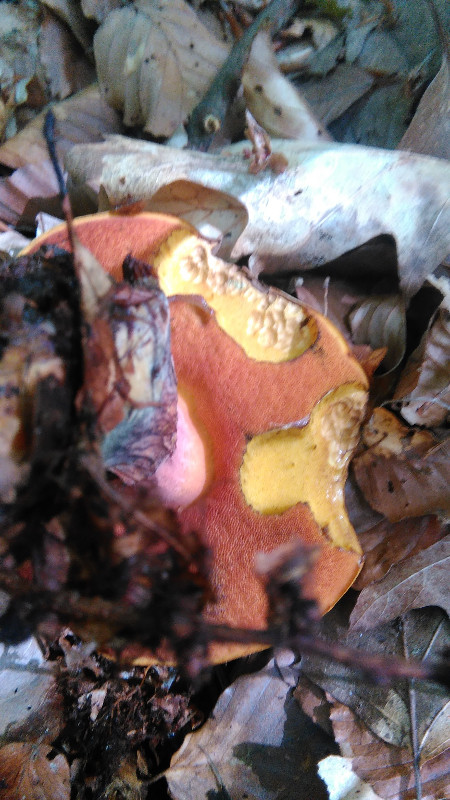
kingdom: Fungi
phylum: Basidiomycota
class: Agaricomycetes
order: Boletales
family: Boletaceae
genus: Neoboletus
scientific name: Neoboletus erythropus
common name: punktstokket indigorørhat
